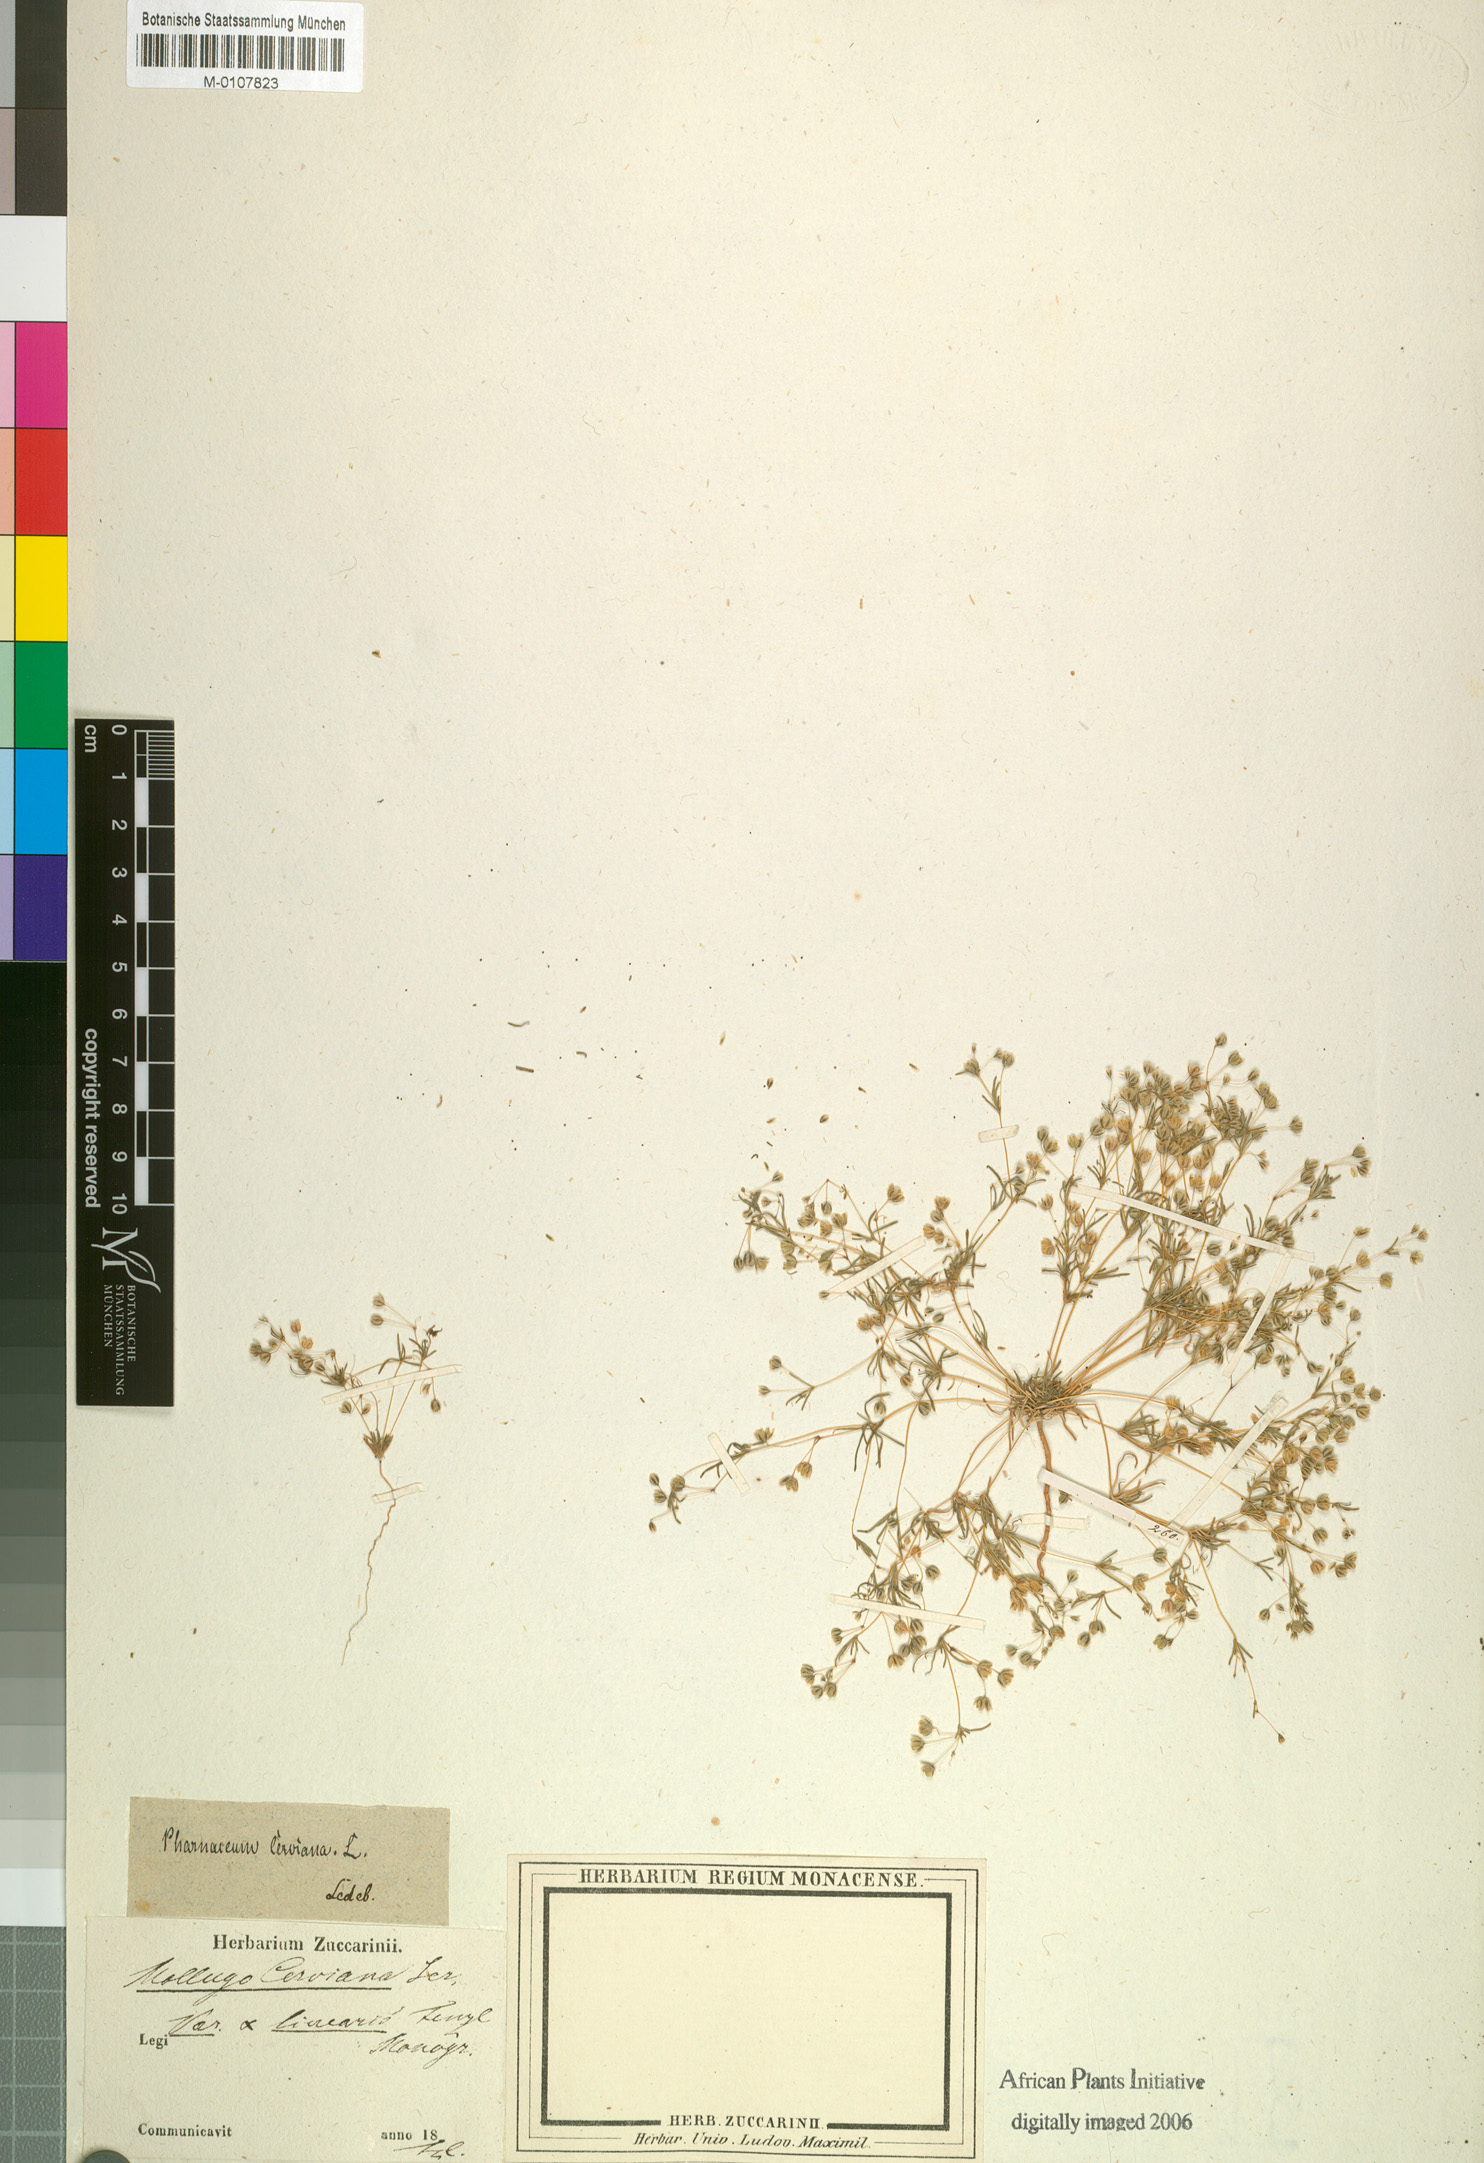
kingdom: Plantae
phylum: Tracheophyta
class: Magnoliopsida
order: Caryophyllales
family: Molluginaceae
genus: Hypertelis
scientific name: Hypertelis cerviana
